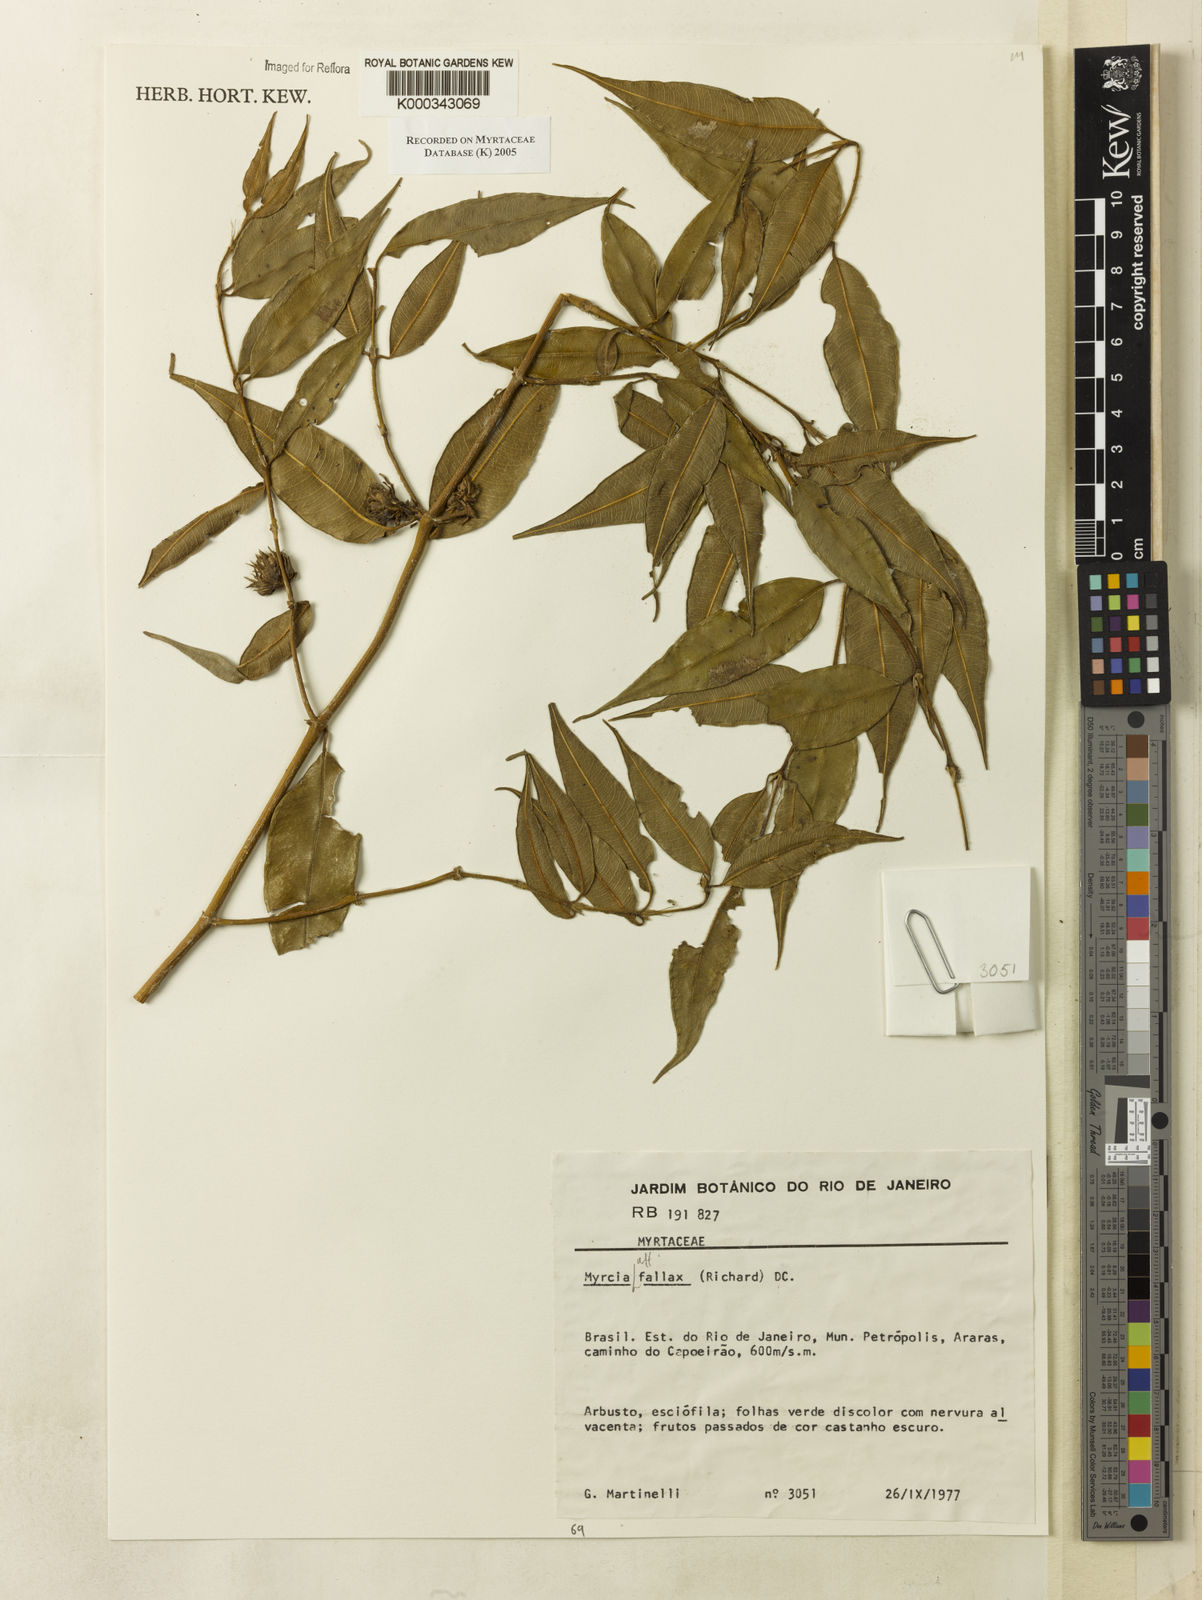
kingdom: Plantae
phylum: Tracheophyta
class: Magnoliopsida
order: Myrtales
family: Myrtaceae
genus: Myrcia
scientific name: Myrcia splendens
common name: Surinam cherry
